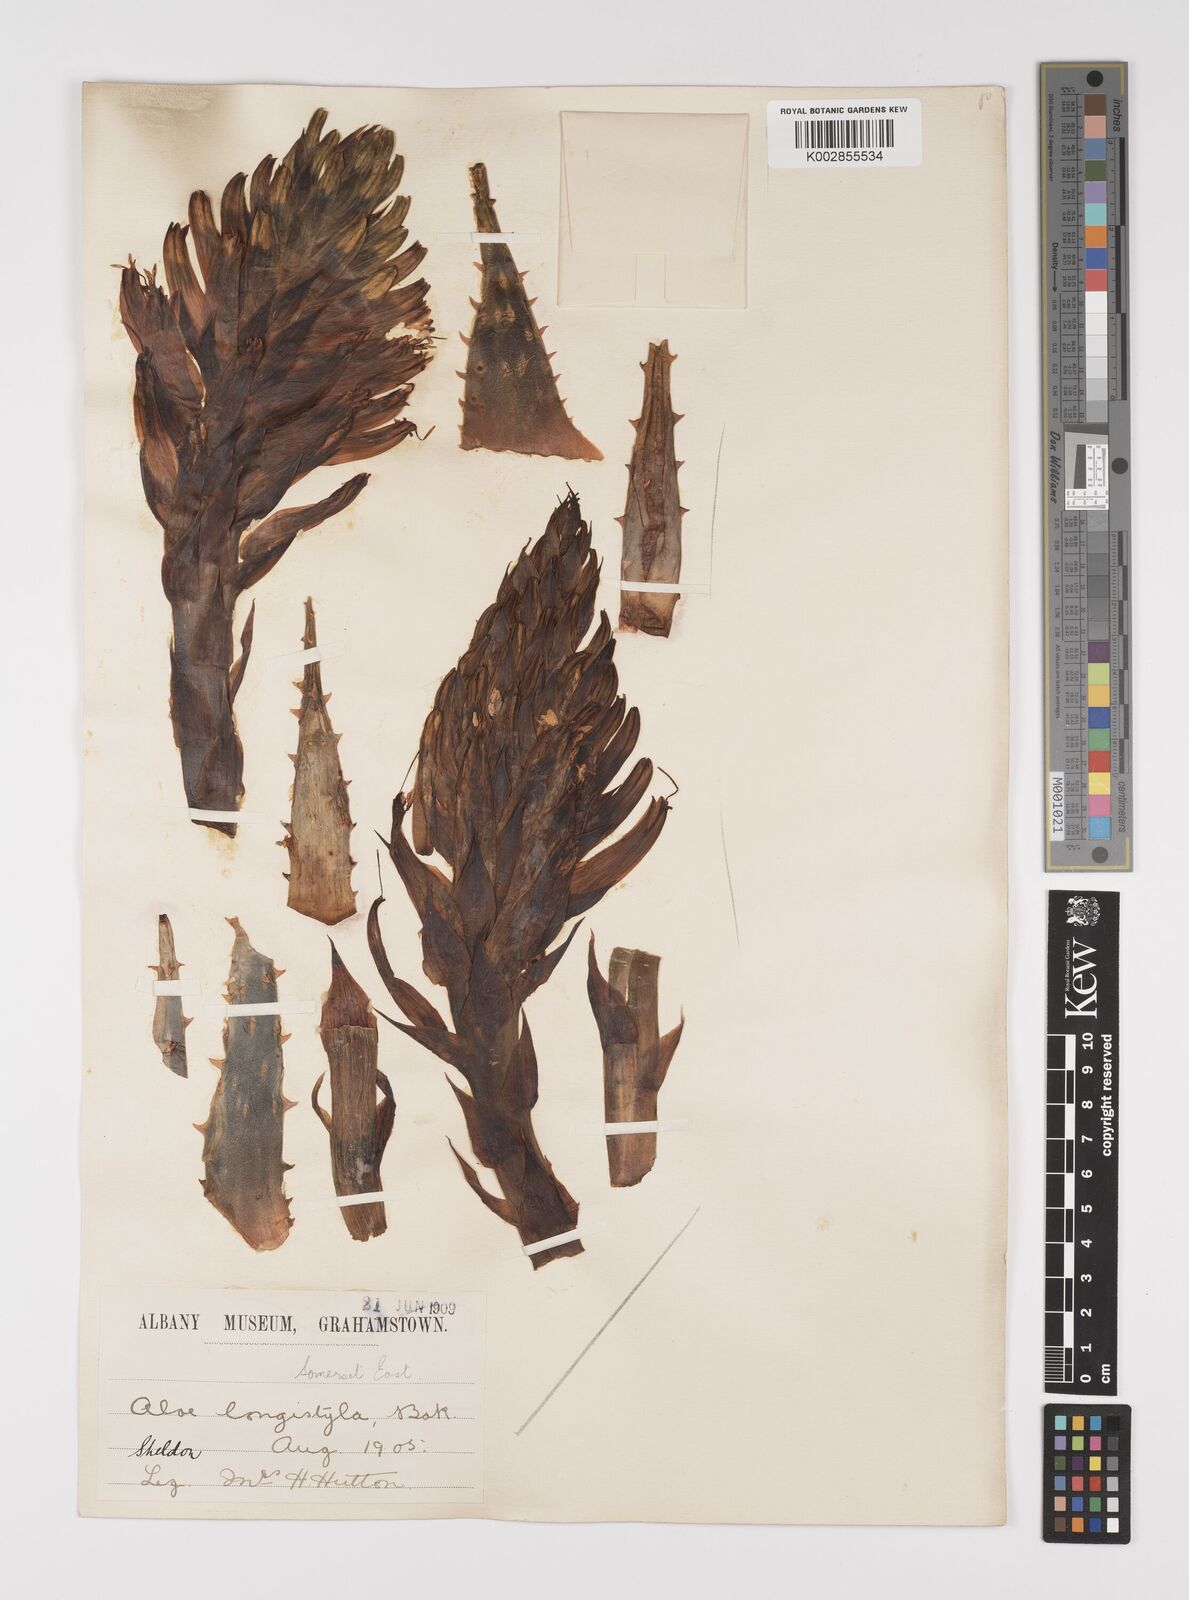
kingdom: Plantae
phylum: Tracheophyta
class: Liliopsida
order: Asparagales
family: Asphodelaceae
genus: Aloe
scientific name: Aloe longistyla
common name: Karoo aloe
